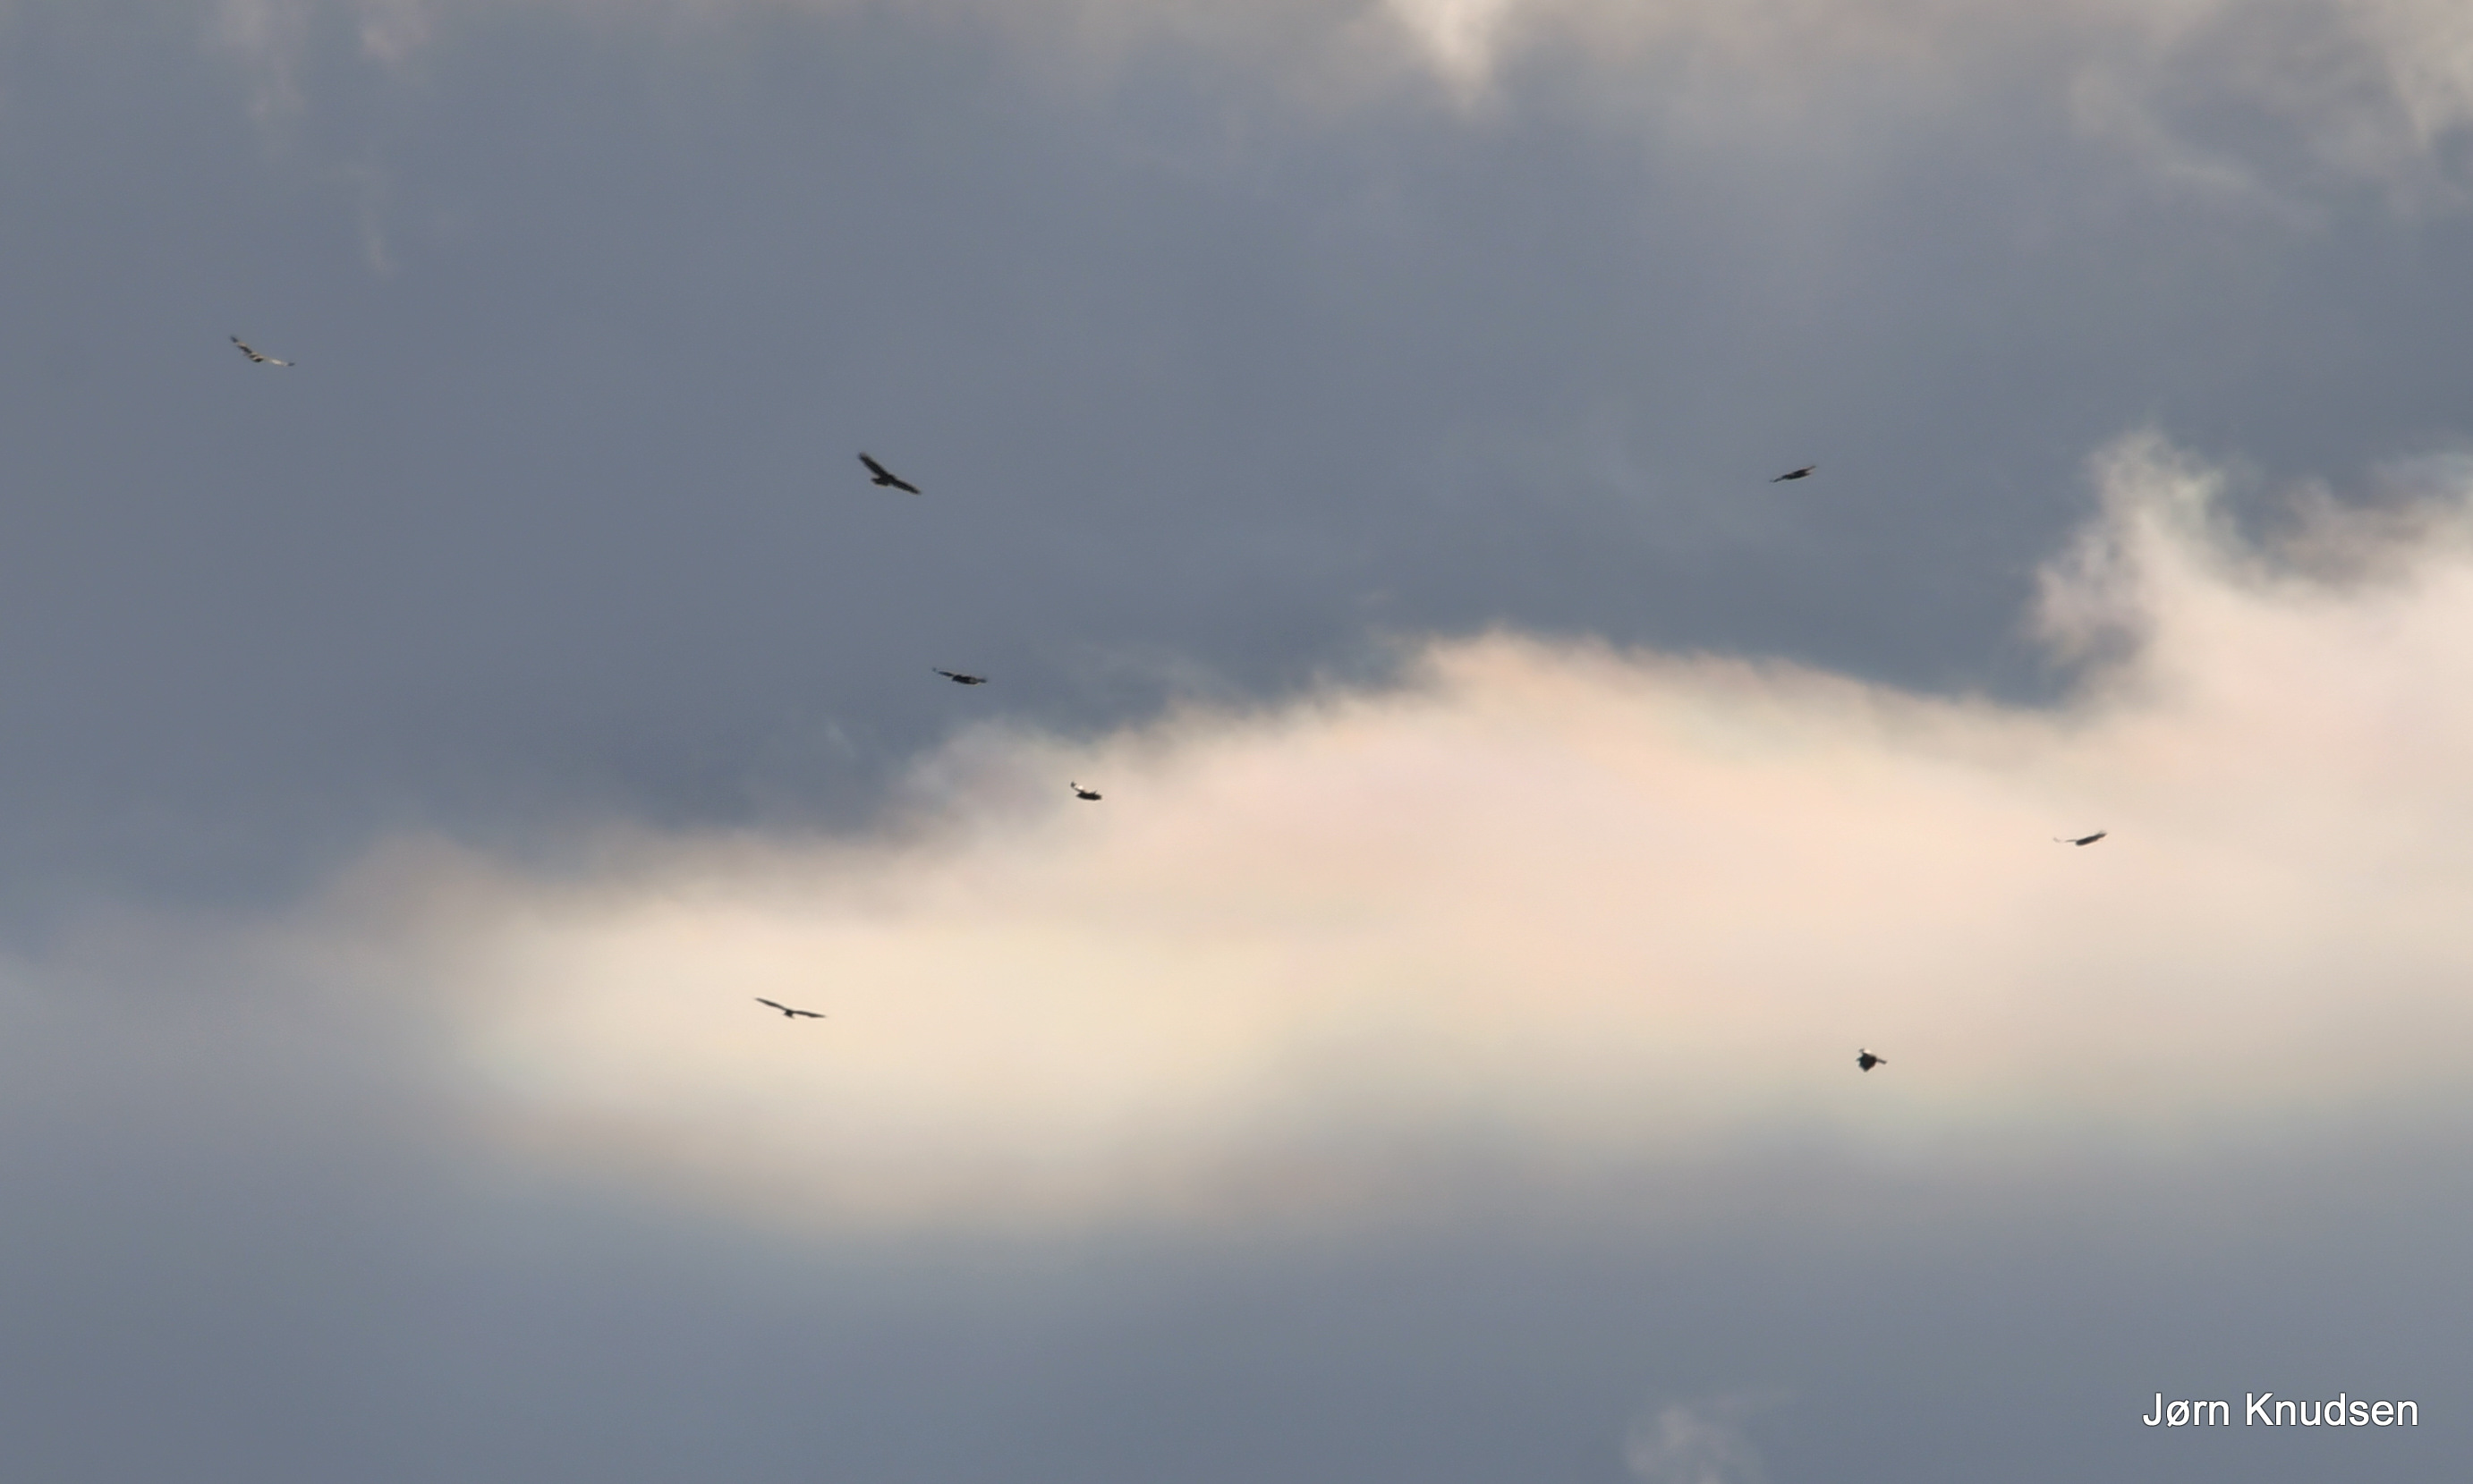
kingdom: Animalia
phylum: Chordata
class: Aves
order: Accipitriformes
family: Accipitridae
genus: Buteo
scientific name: Buteo buteo
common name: Musvåge
